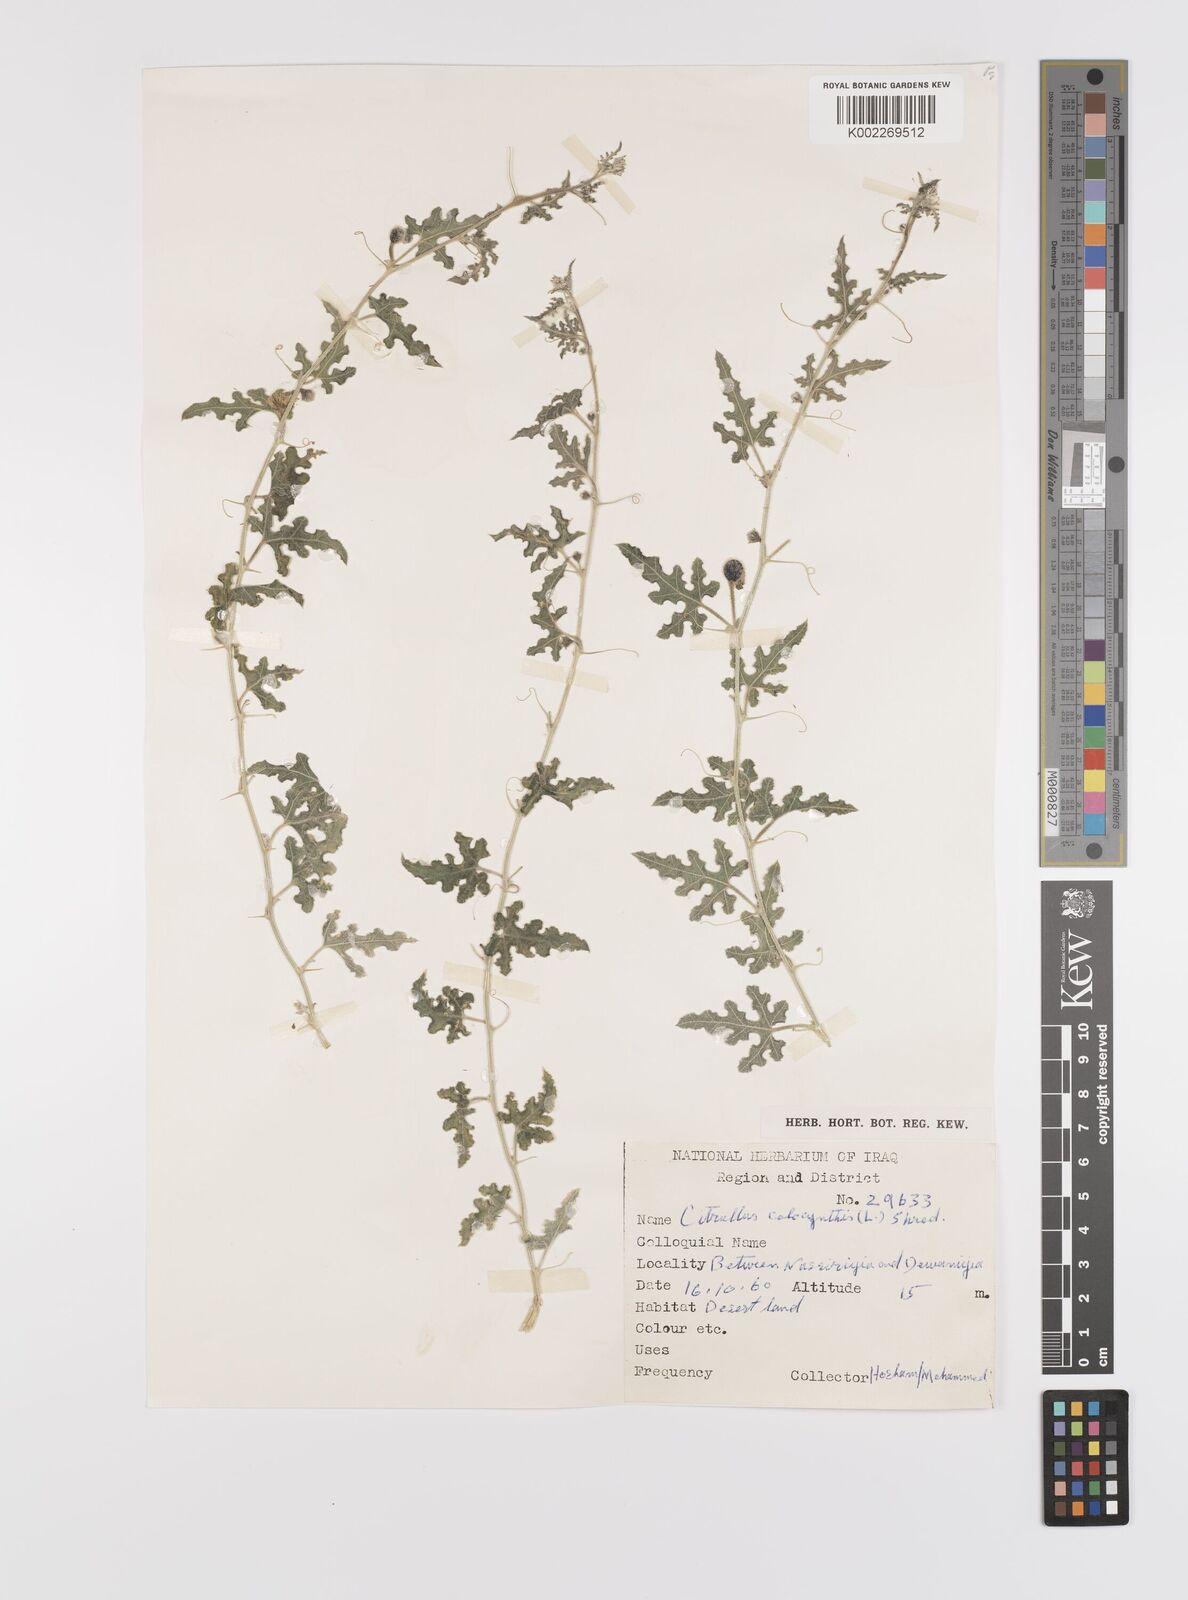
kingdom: Plantae
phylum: Tracheophyta
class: Magnoliopsida
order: Cucurbitales
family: Cucurbitaceae
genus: Citrullus
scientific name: Citrullus colocynthis
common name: Colocynth
